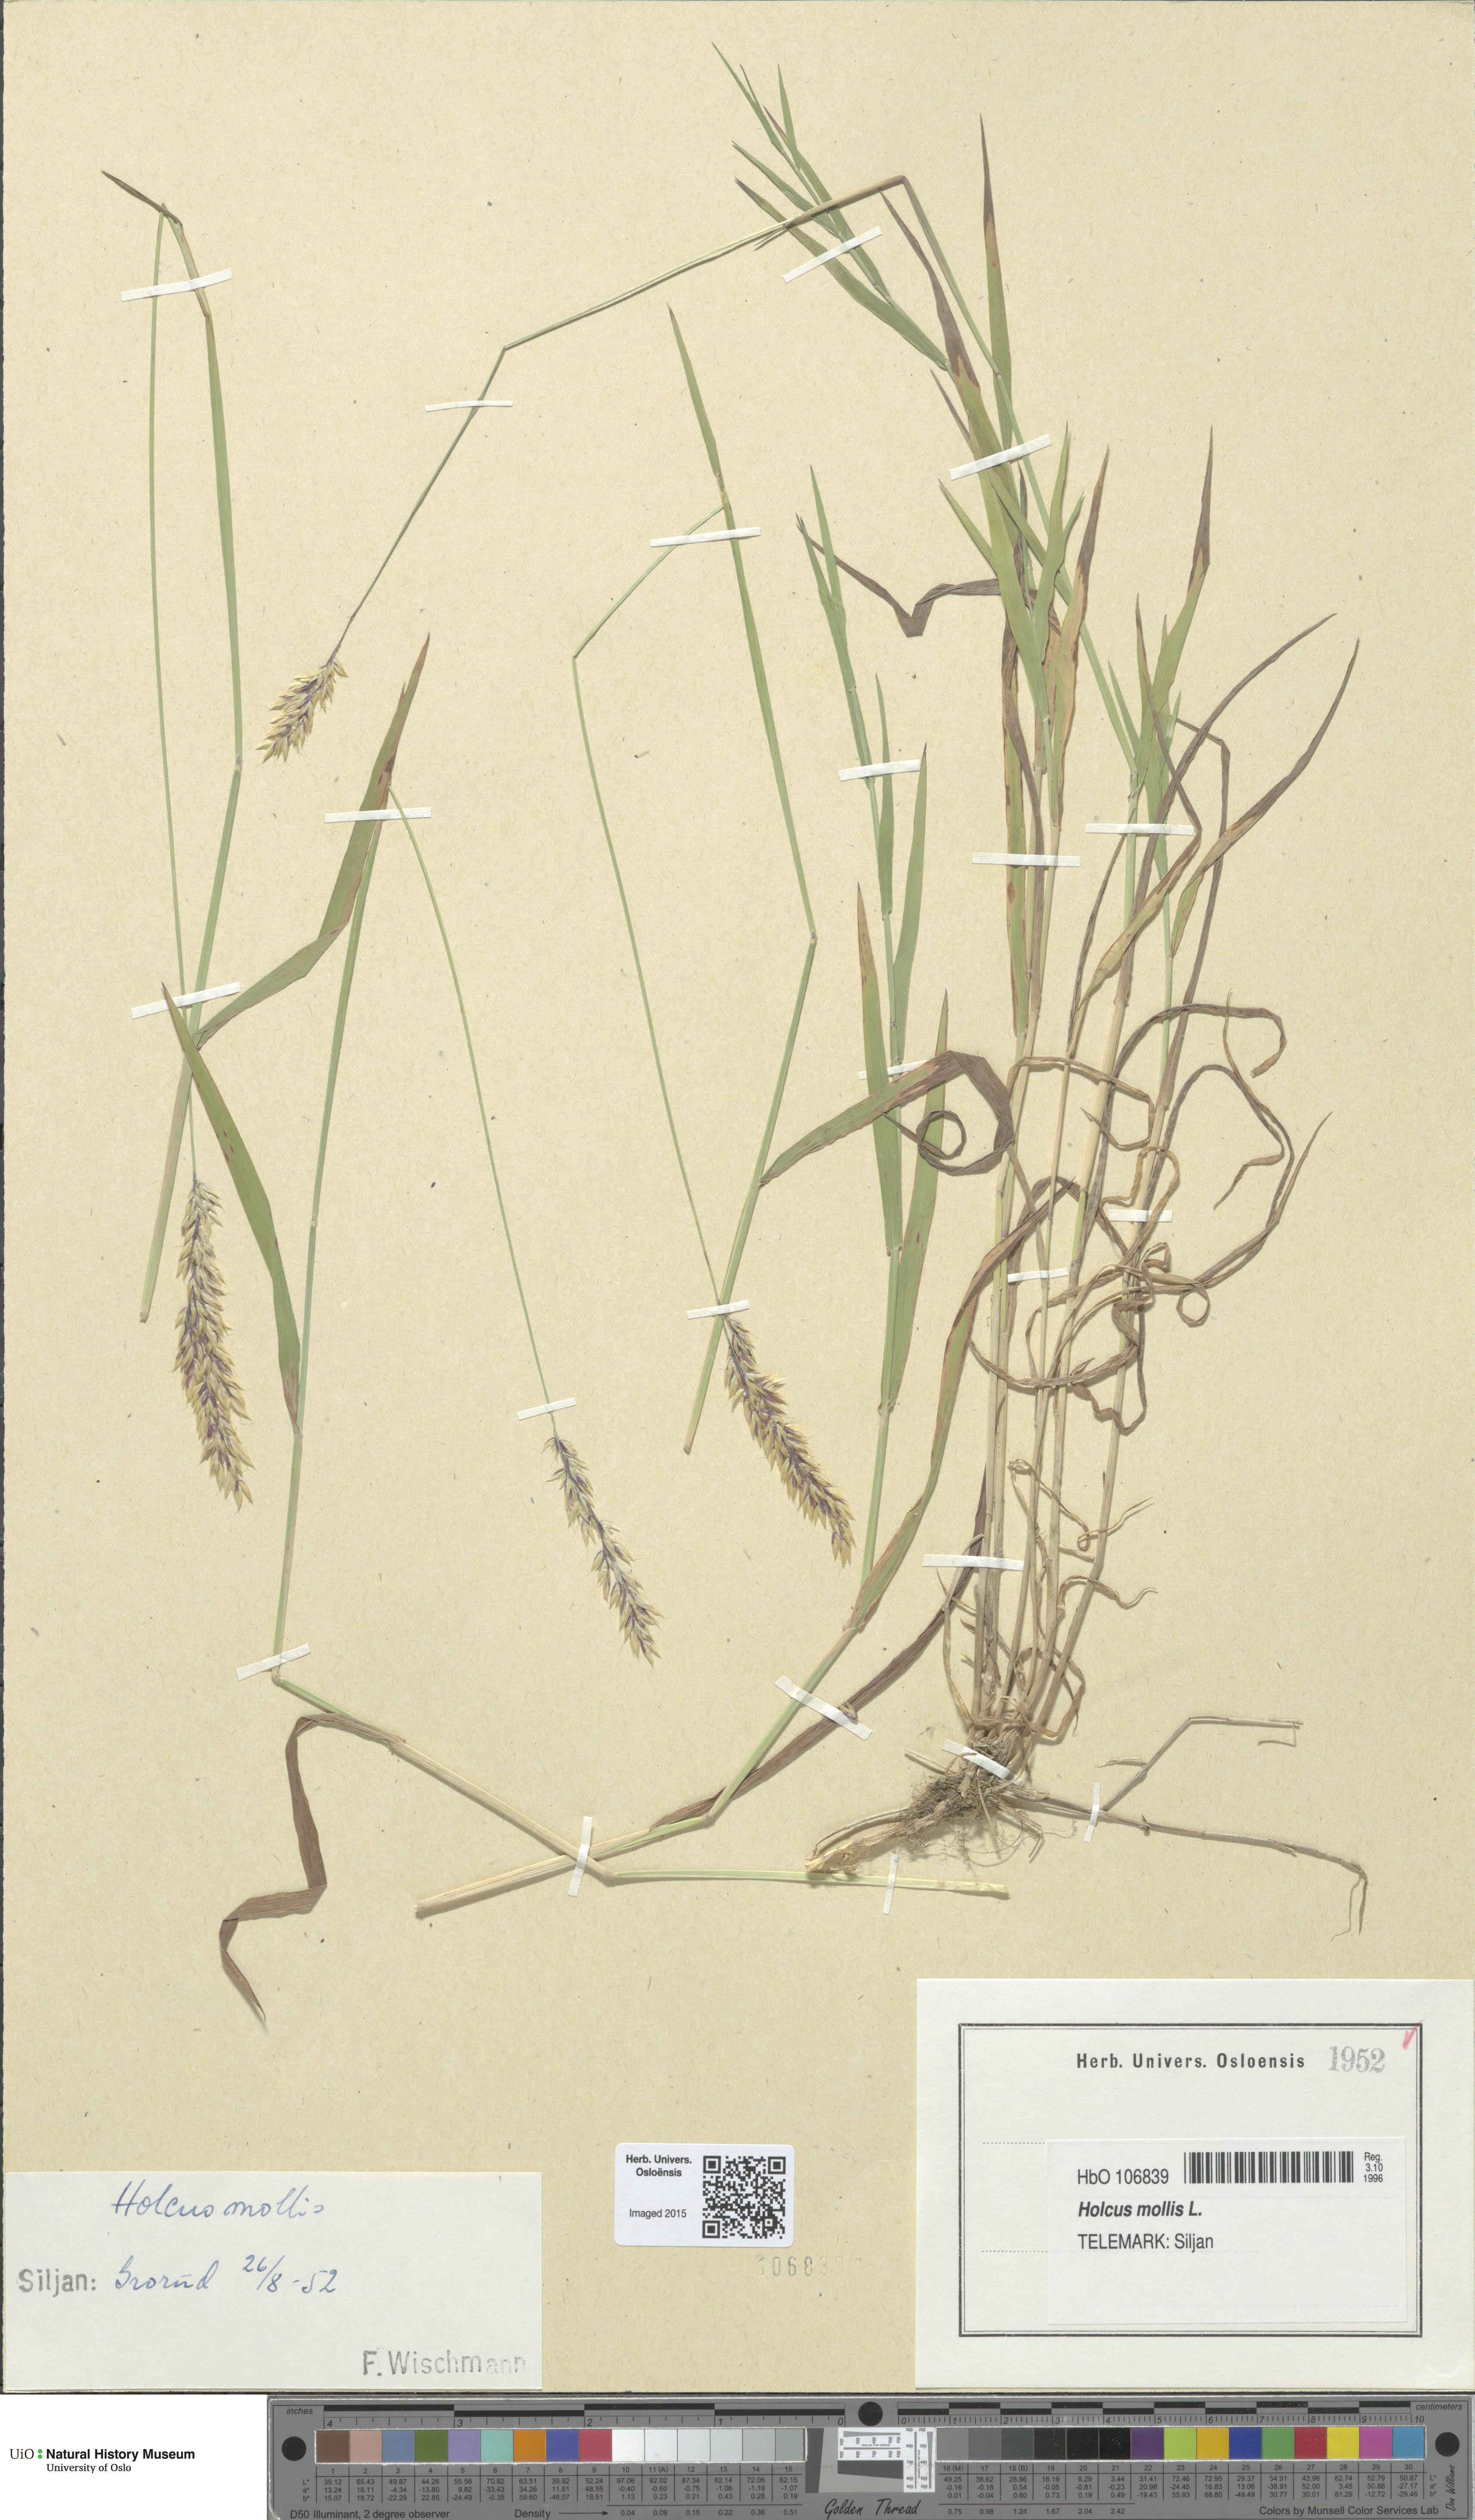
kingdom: Plantae
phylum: Tracheophyta
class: Liliopsida
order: Poales
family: Poaceae
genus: Holcus
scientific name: Holcus mollis
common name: Creeping velvetgrass
